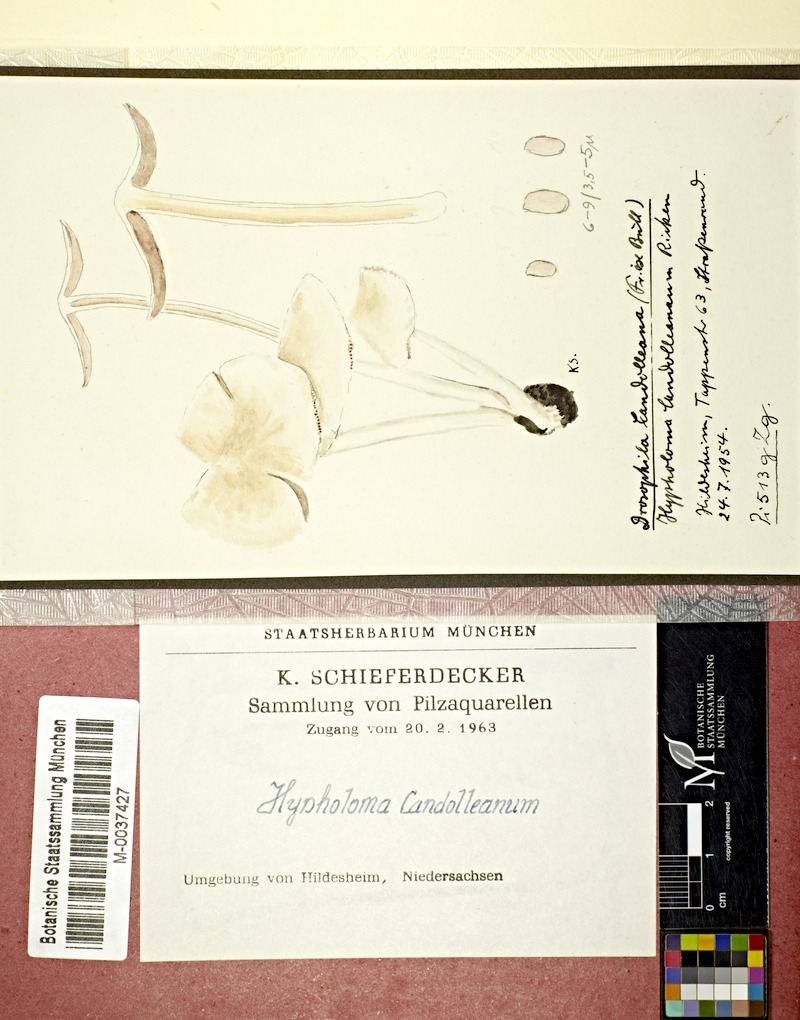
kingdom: Fungi
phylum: Basidiomycota
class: Agaricomycetes
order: Agaricales
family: Psathyrellaceae
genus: Candolleomyces
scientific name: Candolleomyces candolleanus
